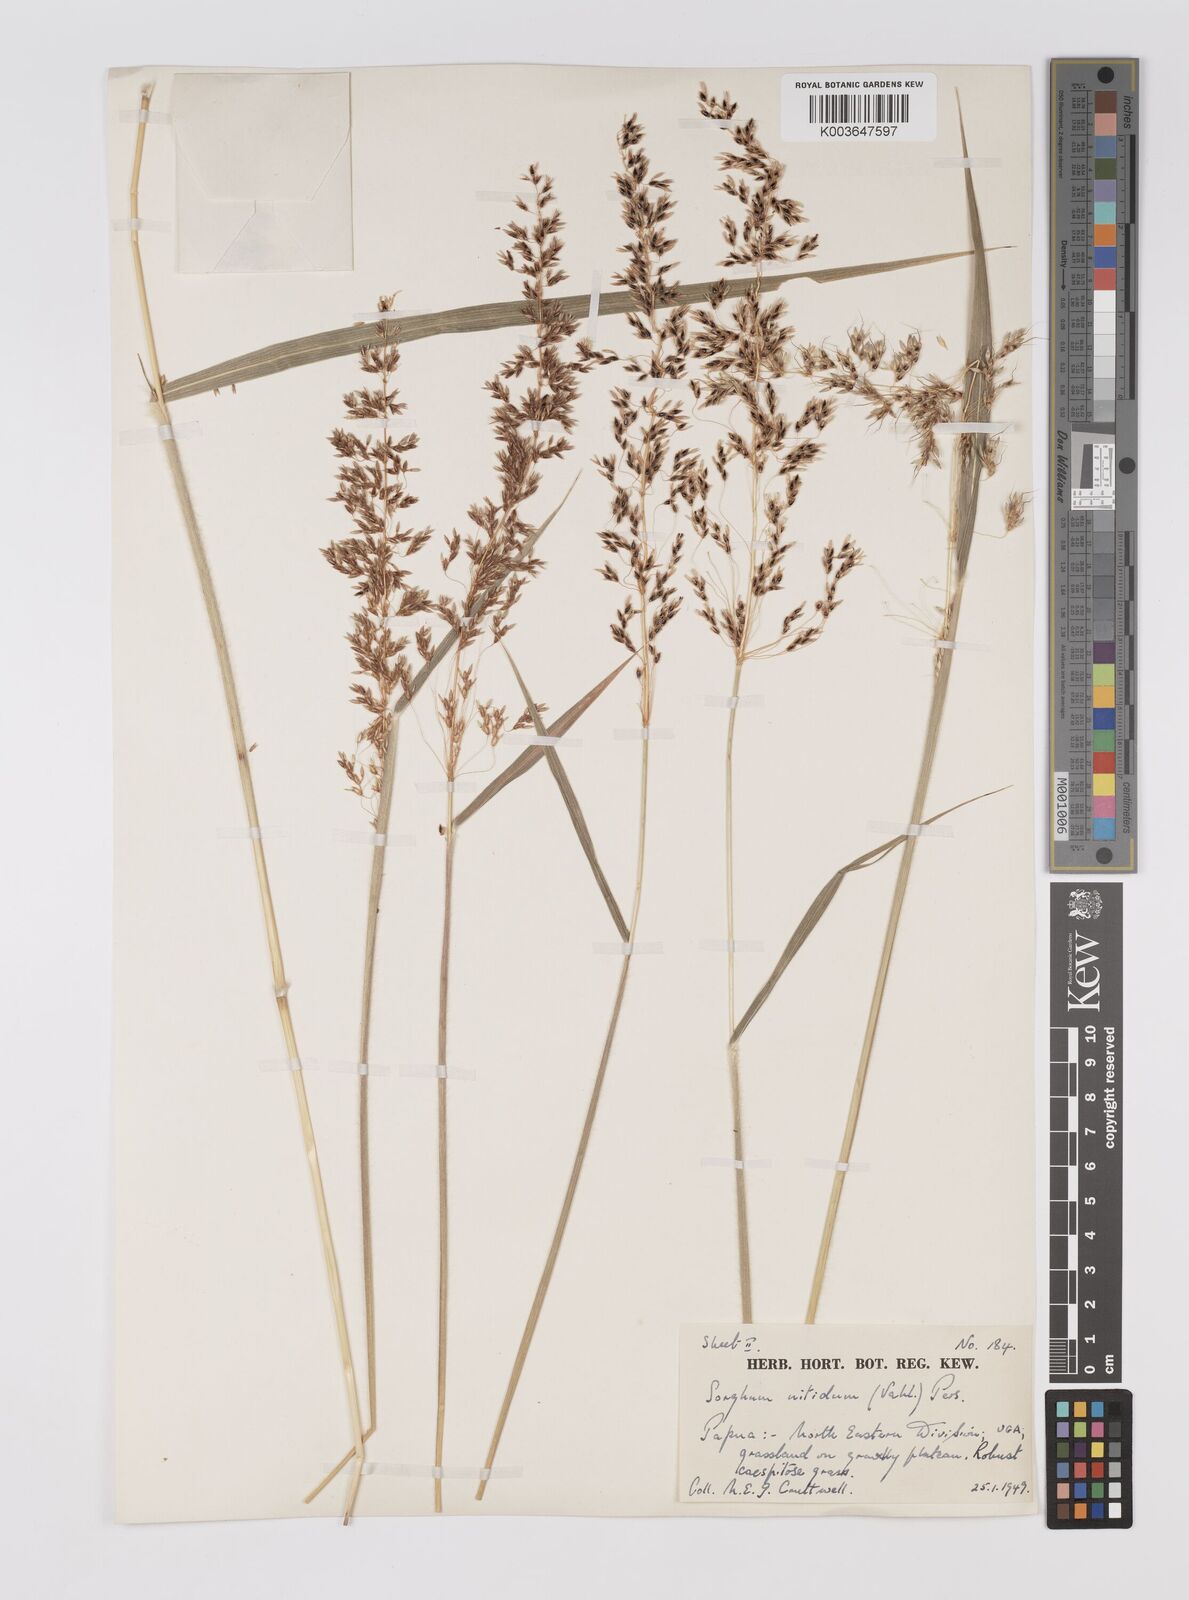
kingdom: Plantae
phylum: Tracheophyta
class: Liliopsida
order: Poales
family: Poaceae
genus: Sorghum
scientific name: Sorghum nitidum
